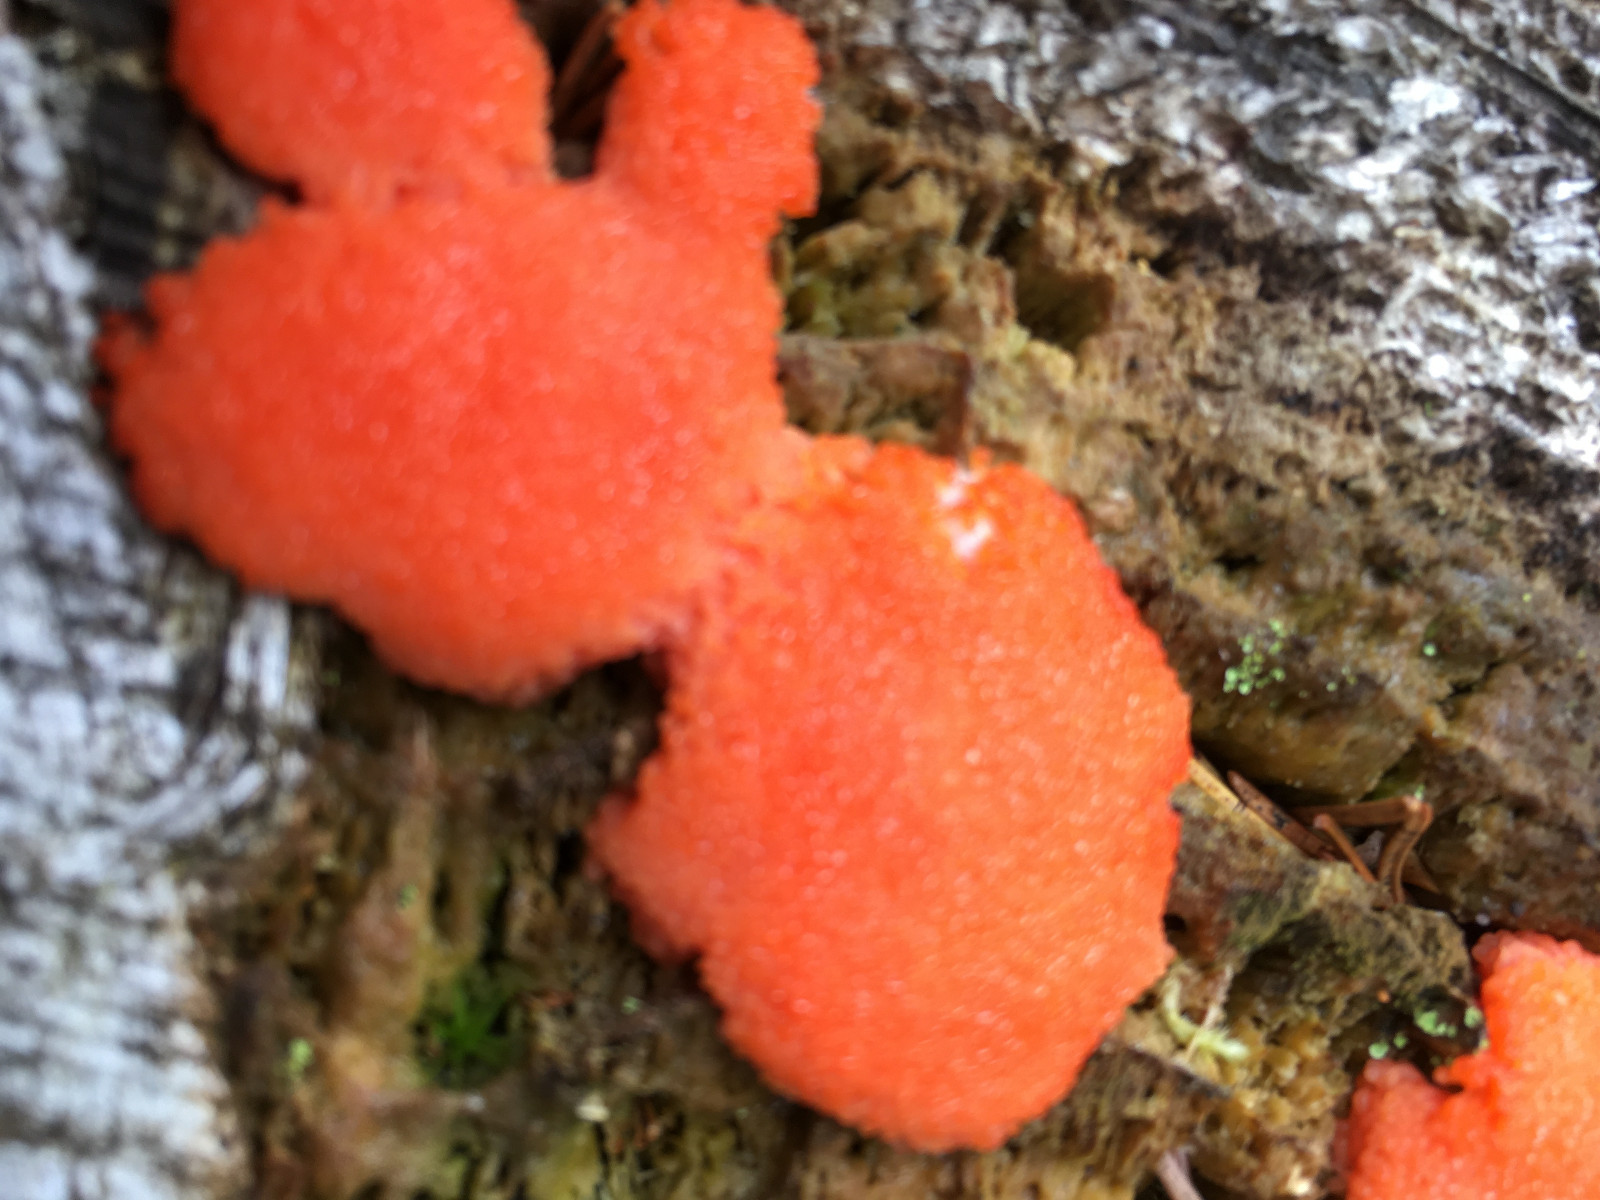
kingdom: Protozoa
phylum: Mycetozoa
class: Myxomycetes
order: Cribrariales
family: Tubiferaceae
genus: Tubifera
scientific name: Tubifera ferruginosa
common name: kanel-støvrør
